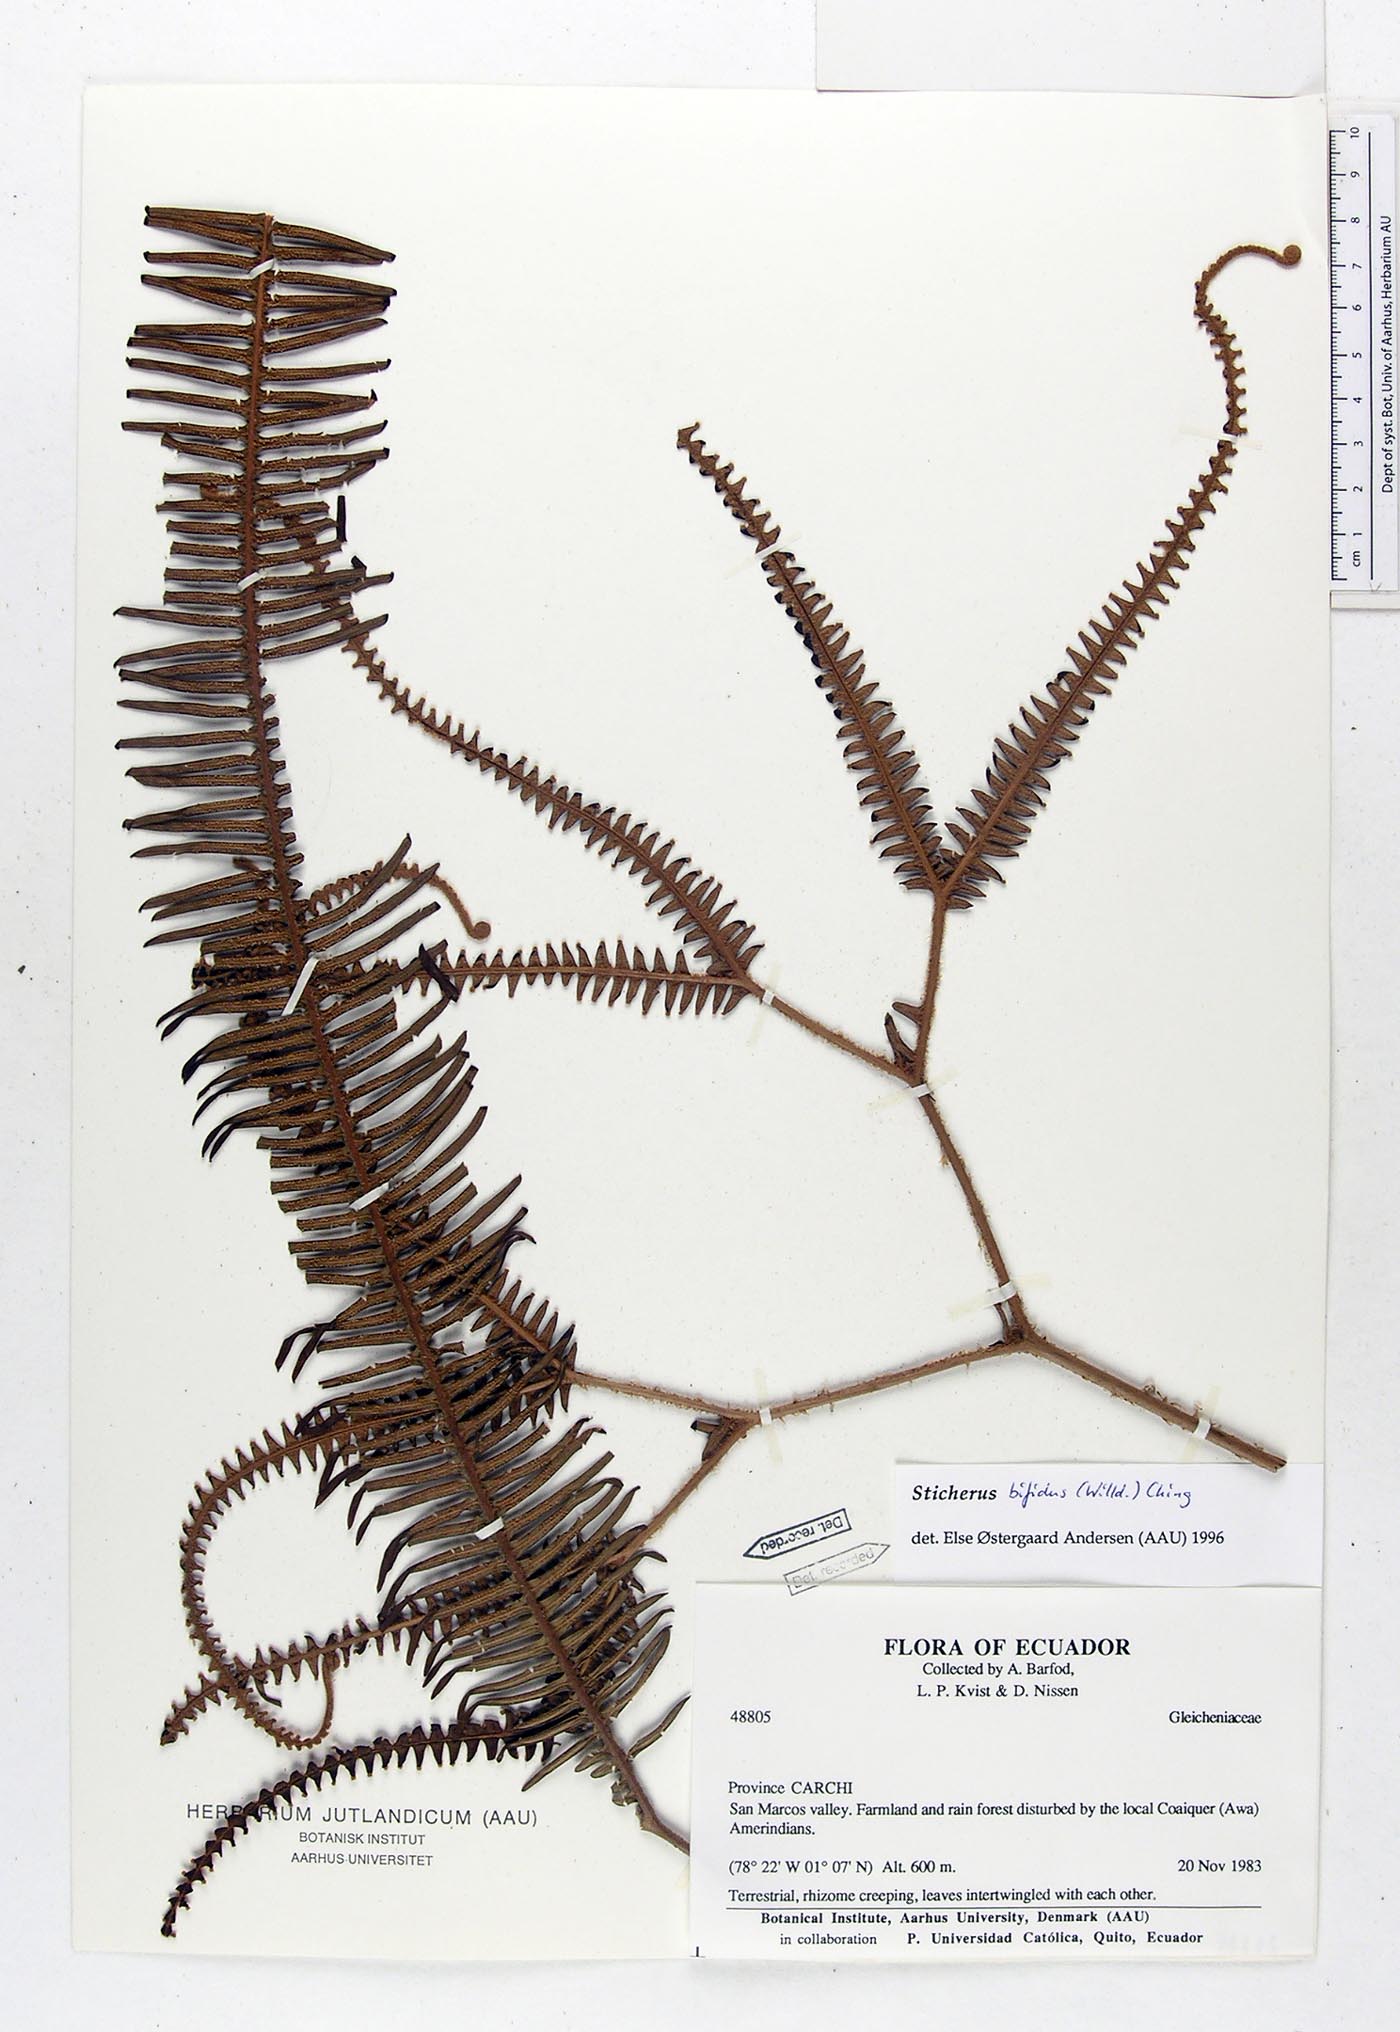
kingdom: Plantae
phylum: Tracheophyta
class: Polypodiopsida
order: Gleicheniales
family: Gleicheniaceae
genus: Sticherus
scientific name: Sticherus bifidus
